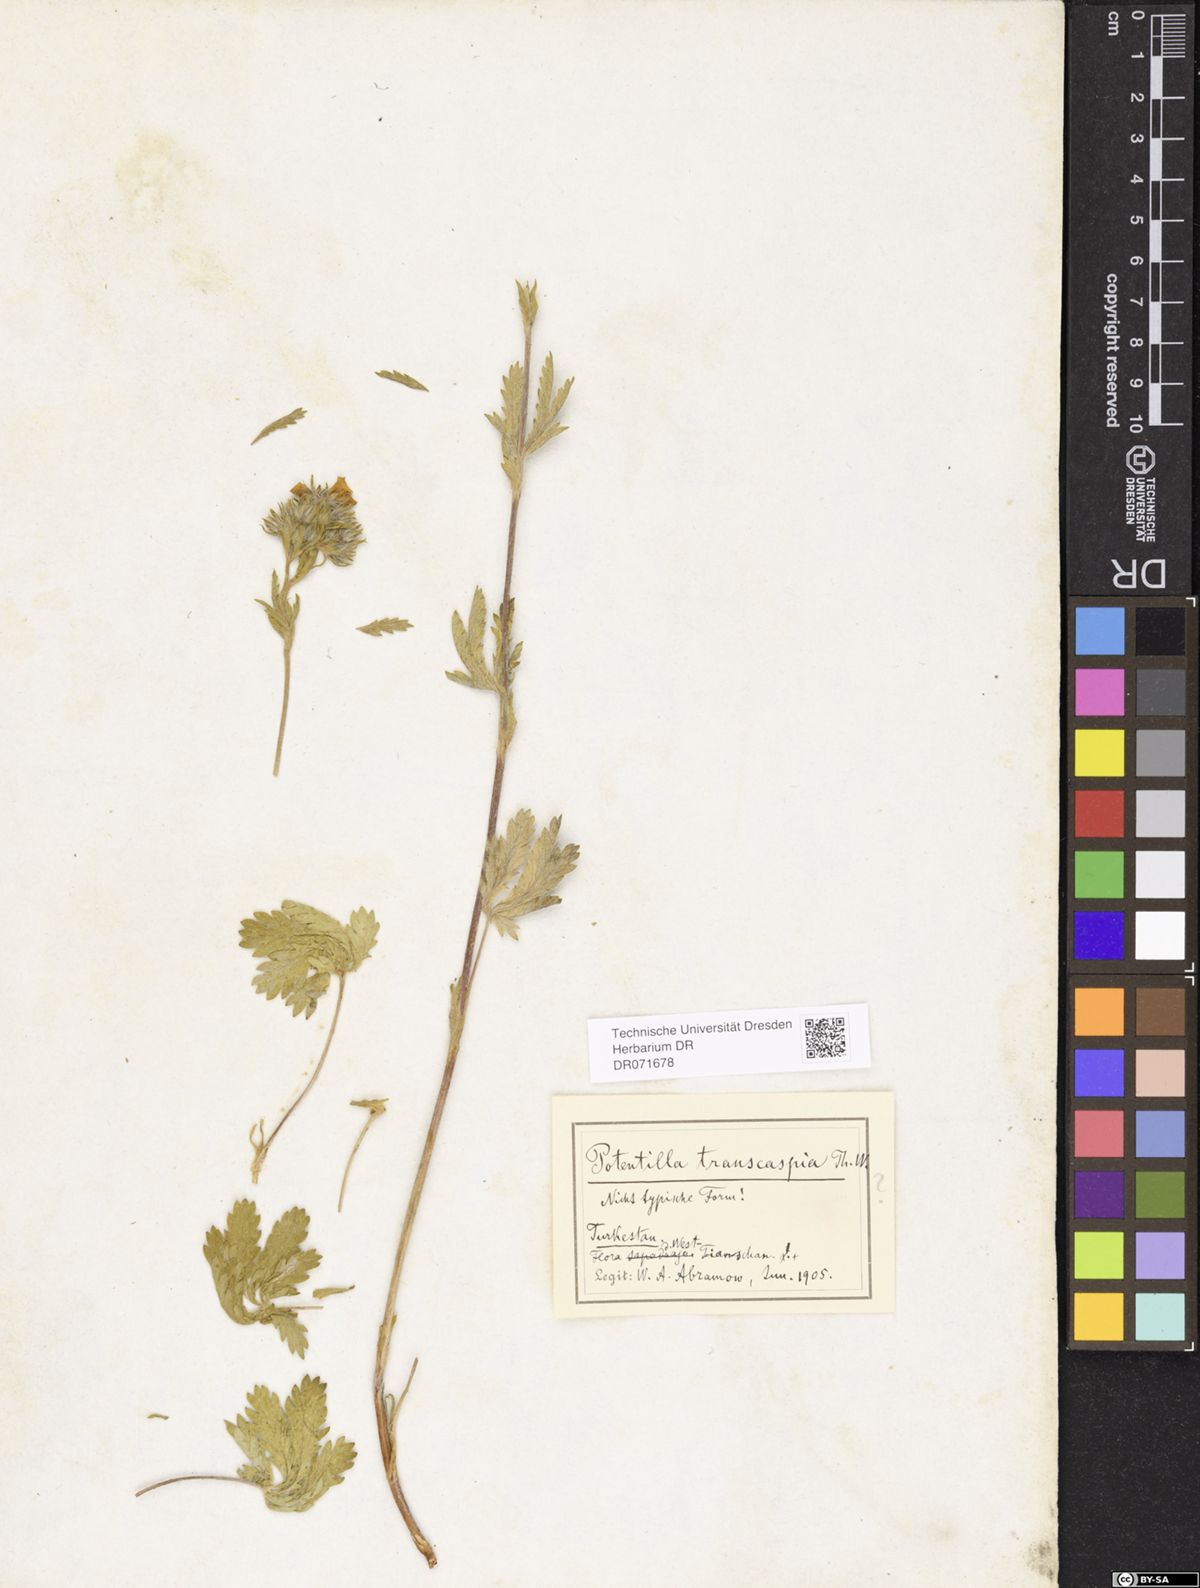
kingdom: Plantae
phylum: Tracheophyta
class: Magnoliopsida
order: Rosales
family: Rosaceae
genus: Potentilla
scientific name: Potentilla pedata
